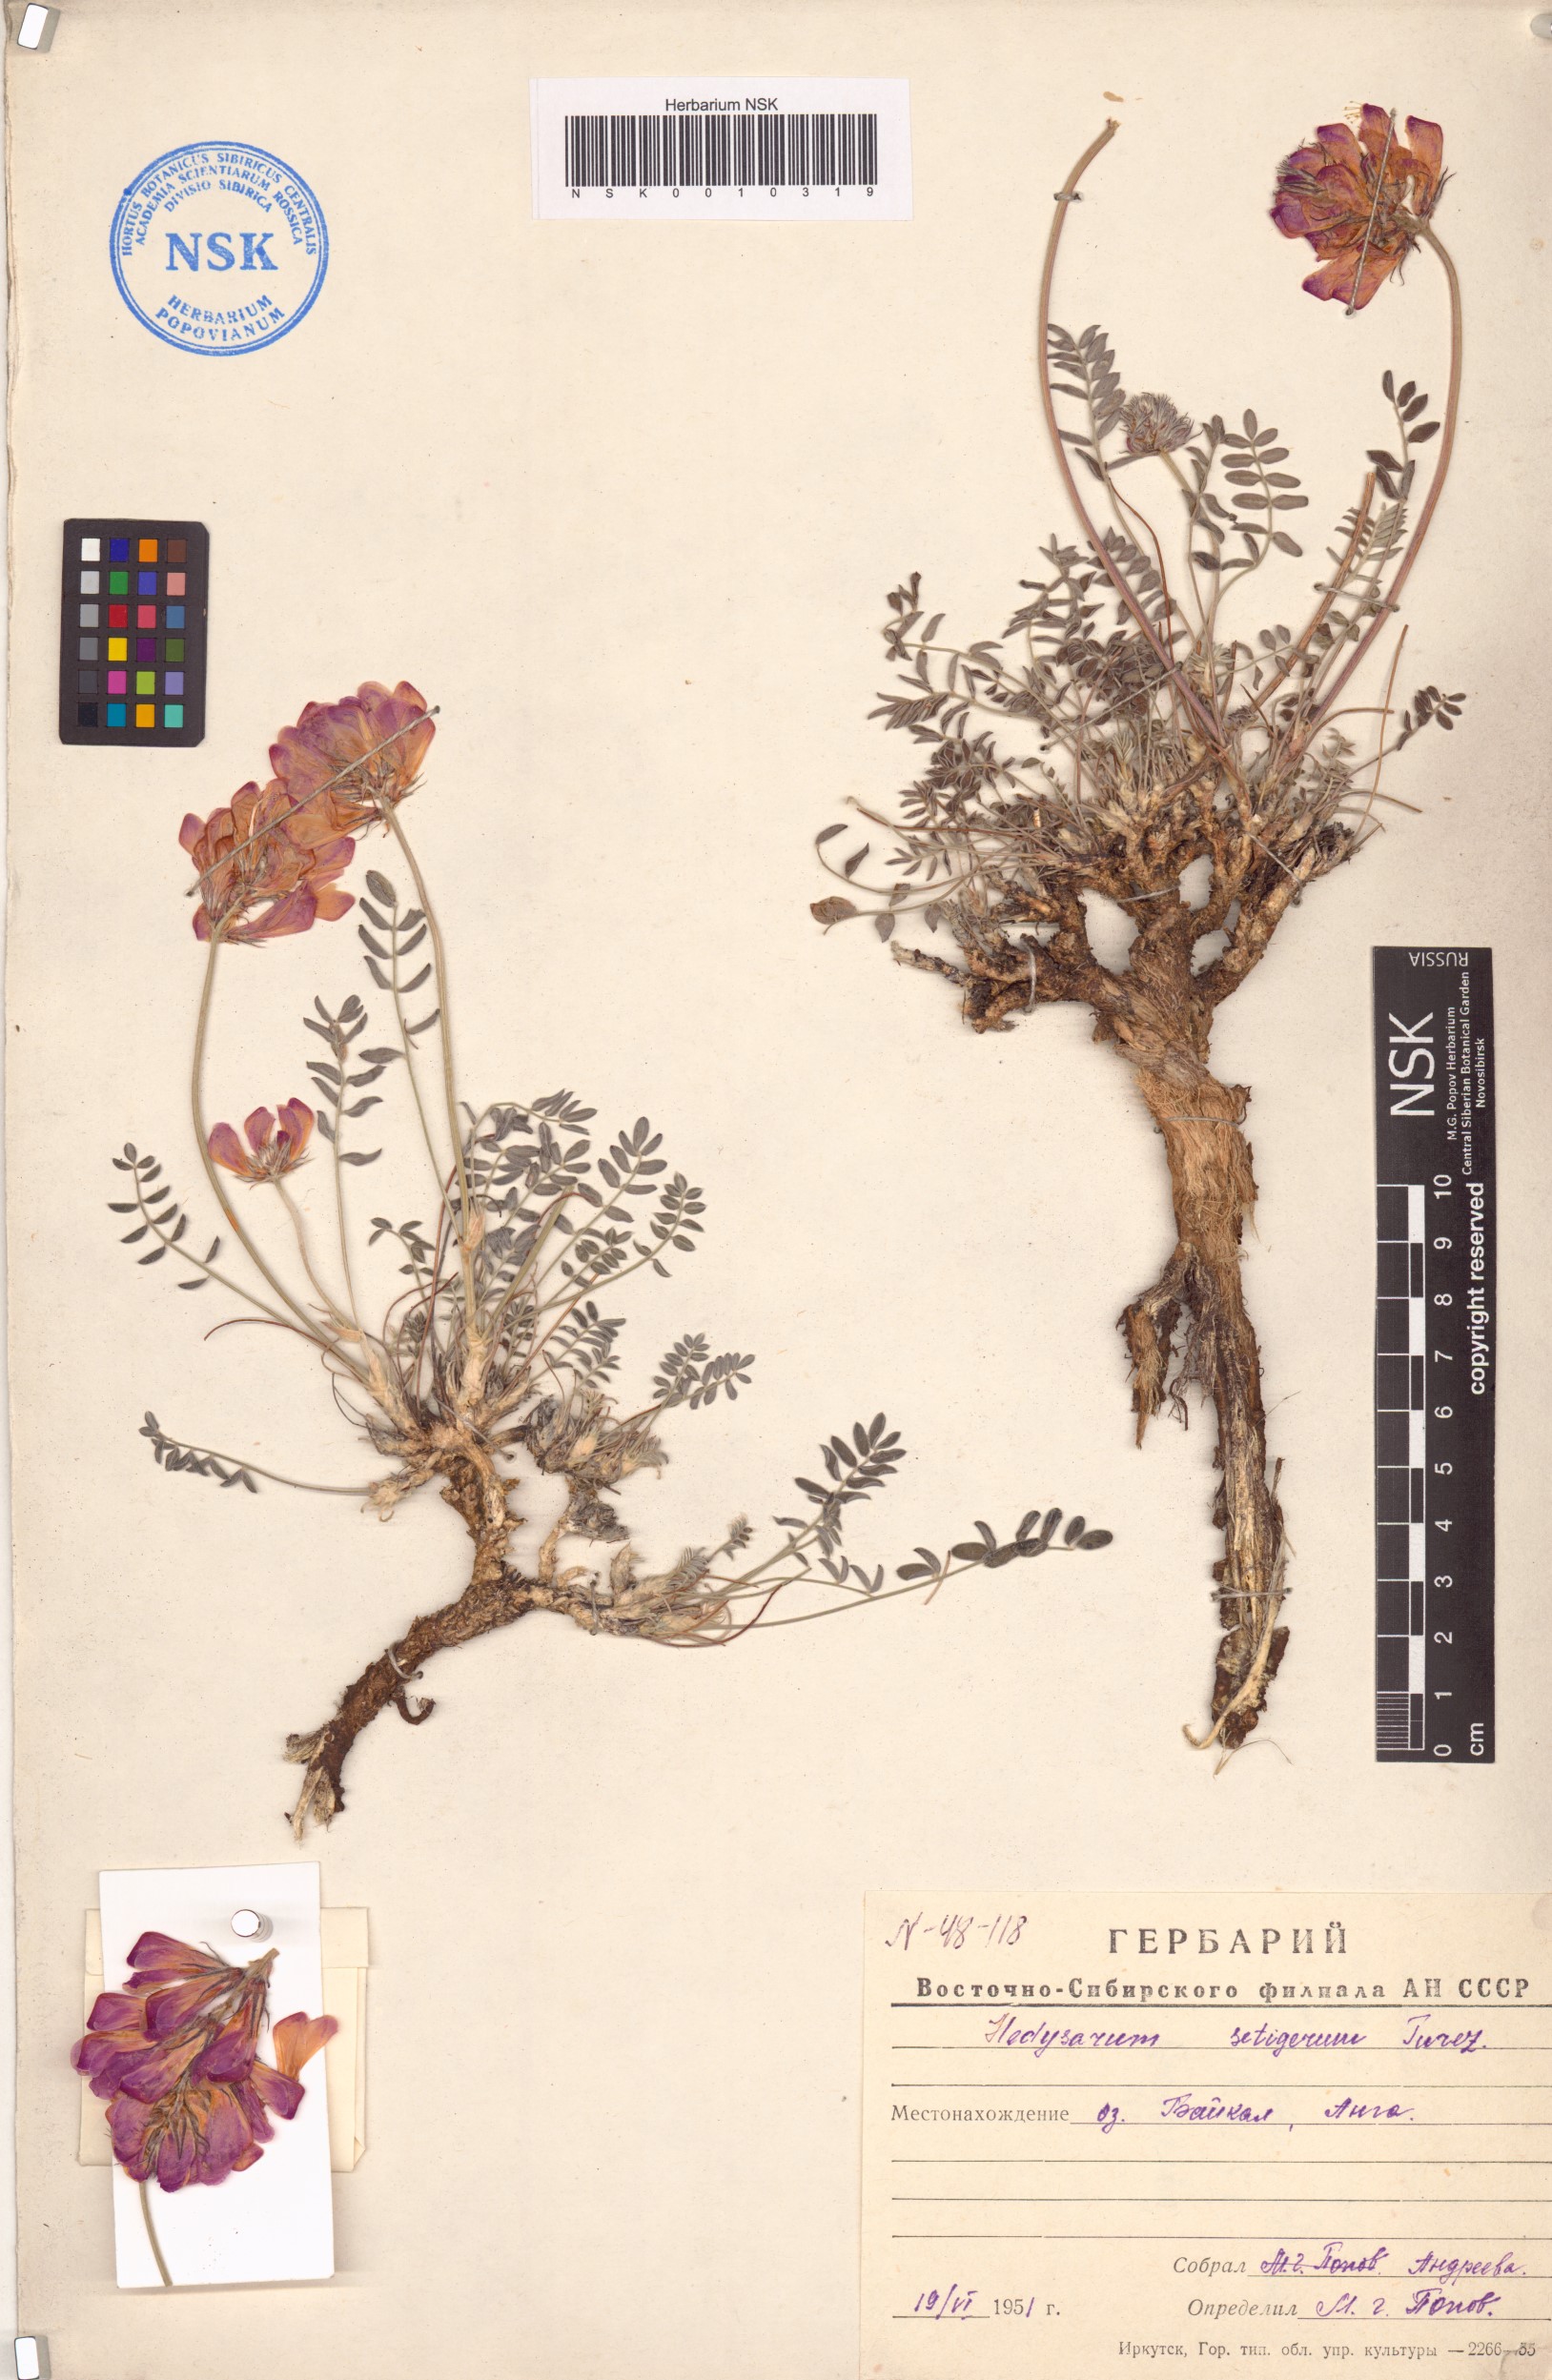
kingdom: Plantae
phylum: Tracheophyta
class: Magnoliopsida
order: Fabales
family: Fabaceae
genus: Hedysarum
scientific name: Hedysarum setigerum
